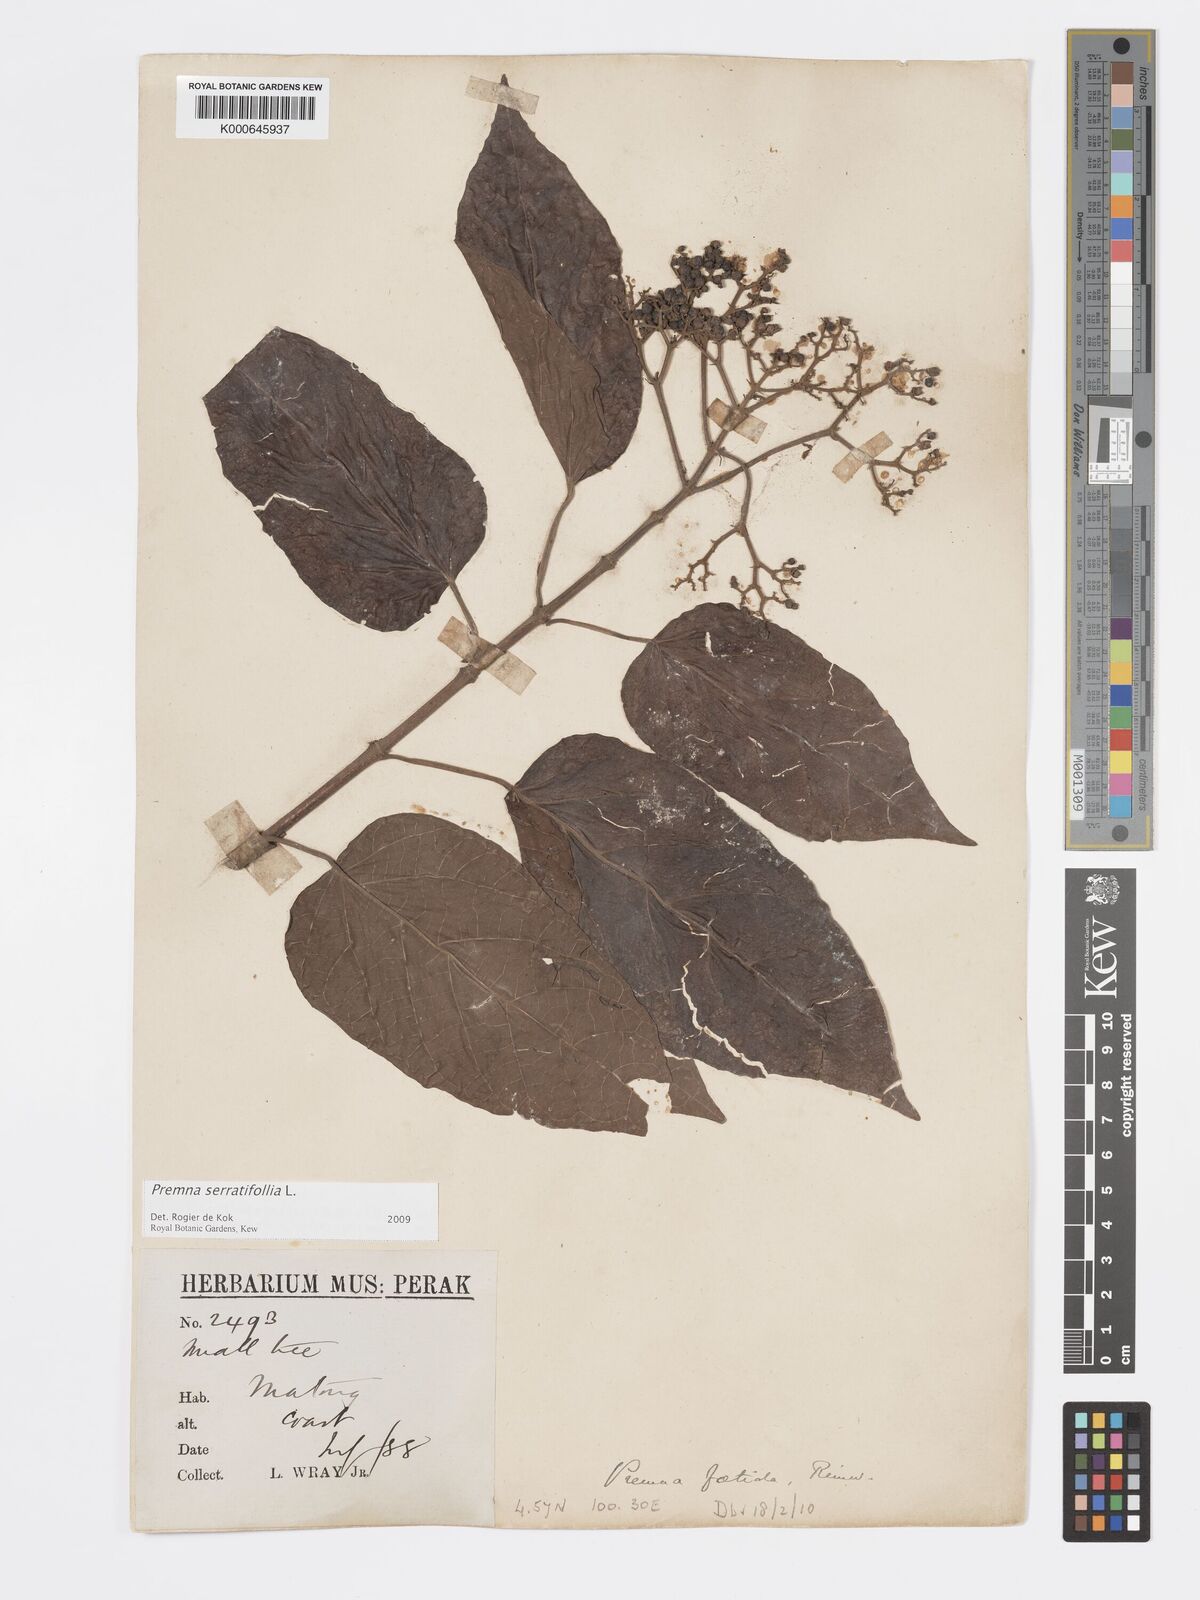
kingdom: Plantae
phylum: Tracheophyta
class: Magnoliopsida
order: Lamiales
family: Lamiaceae
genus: Premna
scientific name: Premna serratifolia
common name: Bastard guelder
